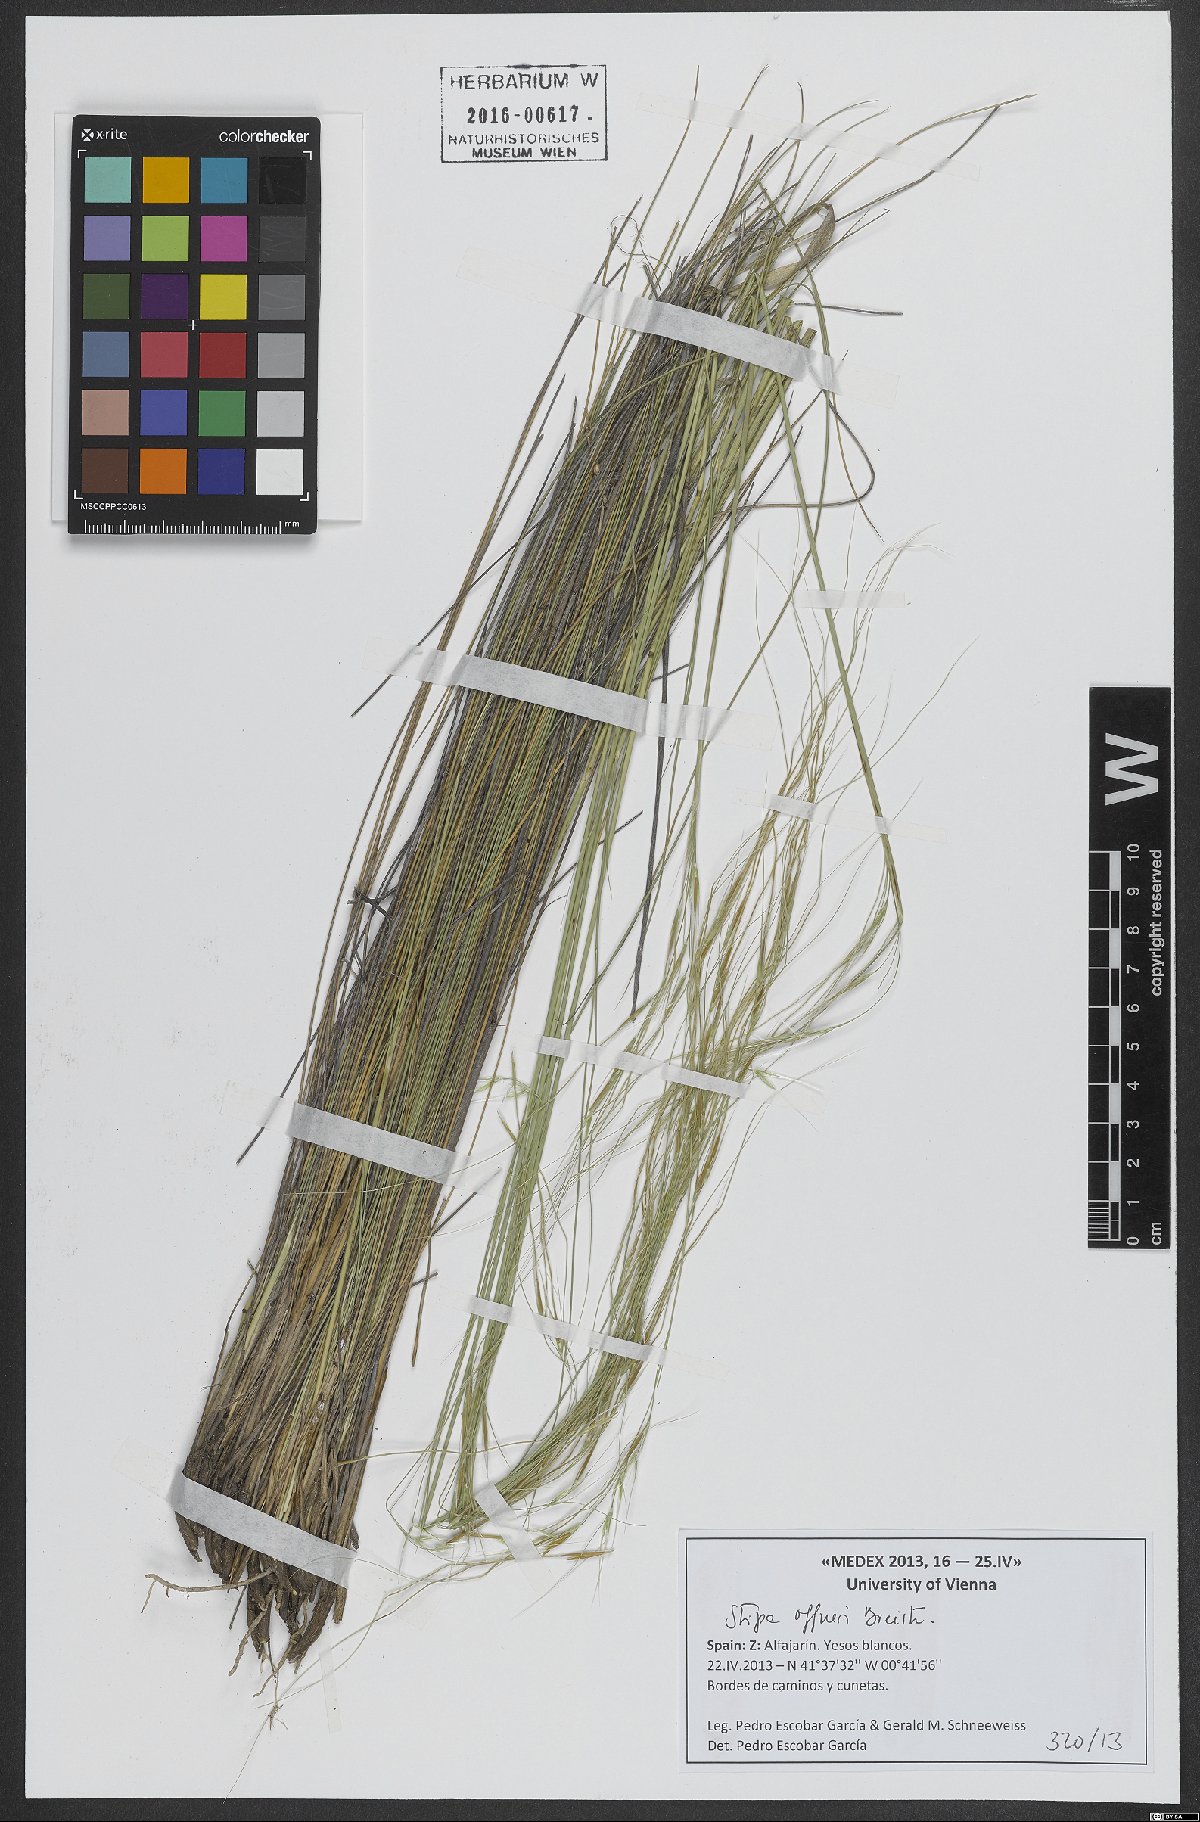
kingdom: Plantae
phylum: Tracheophyta
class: Liliopsida
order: Poales
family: Poaceae
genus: Stipa
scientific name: Stipa offneri
